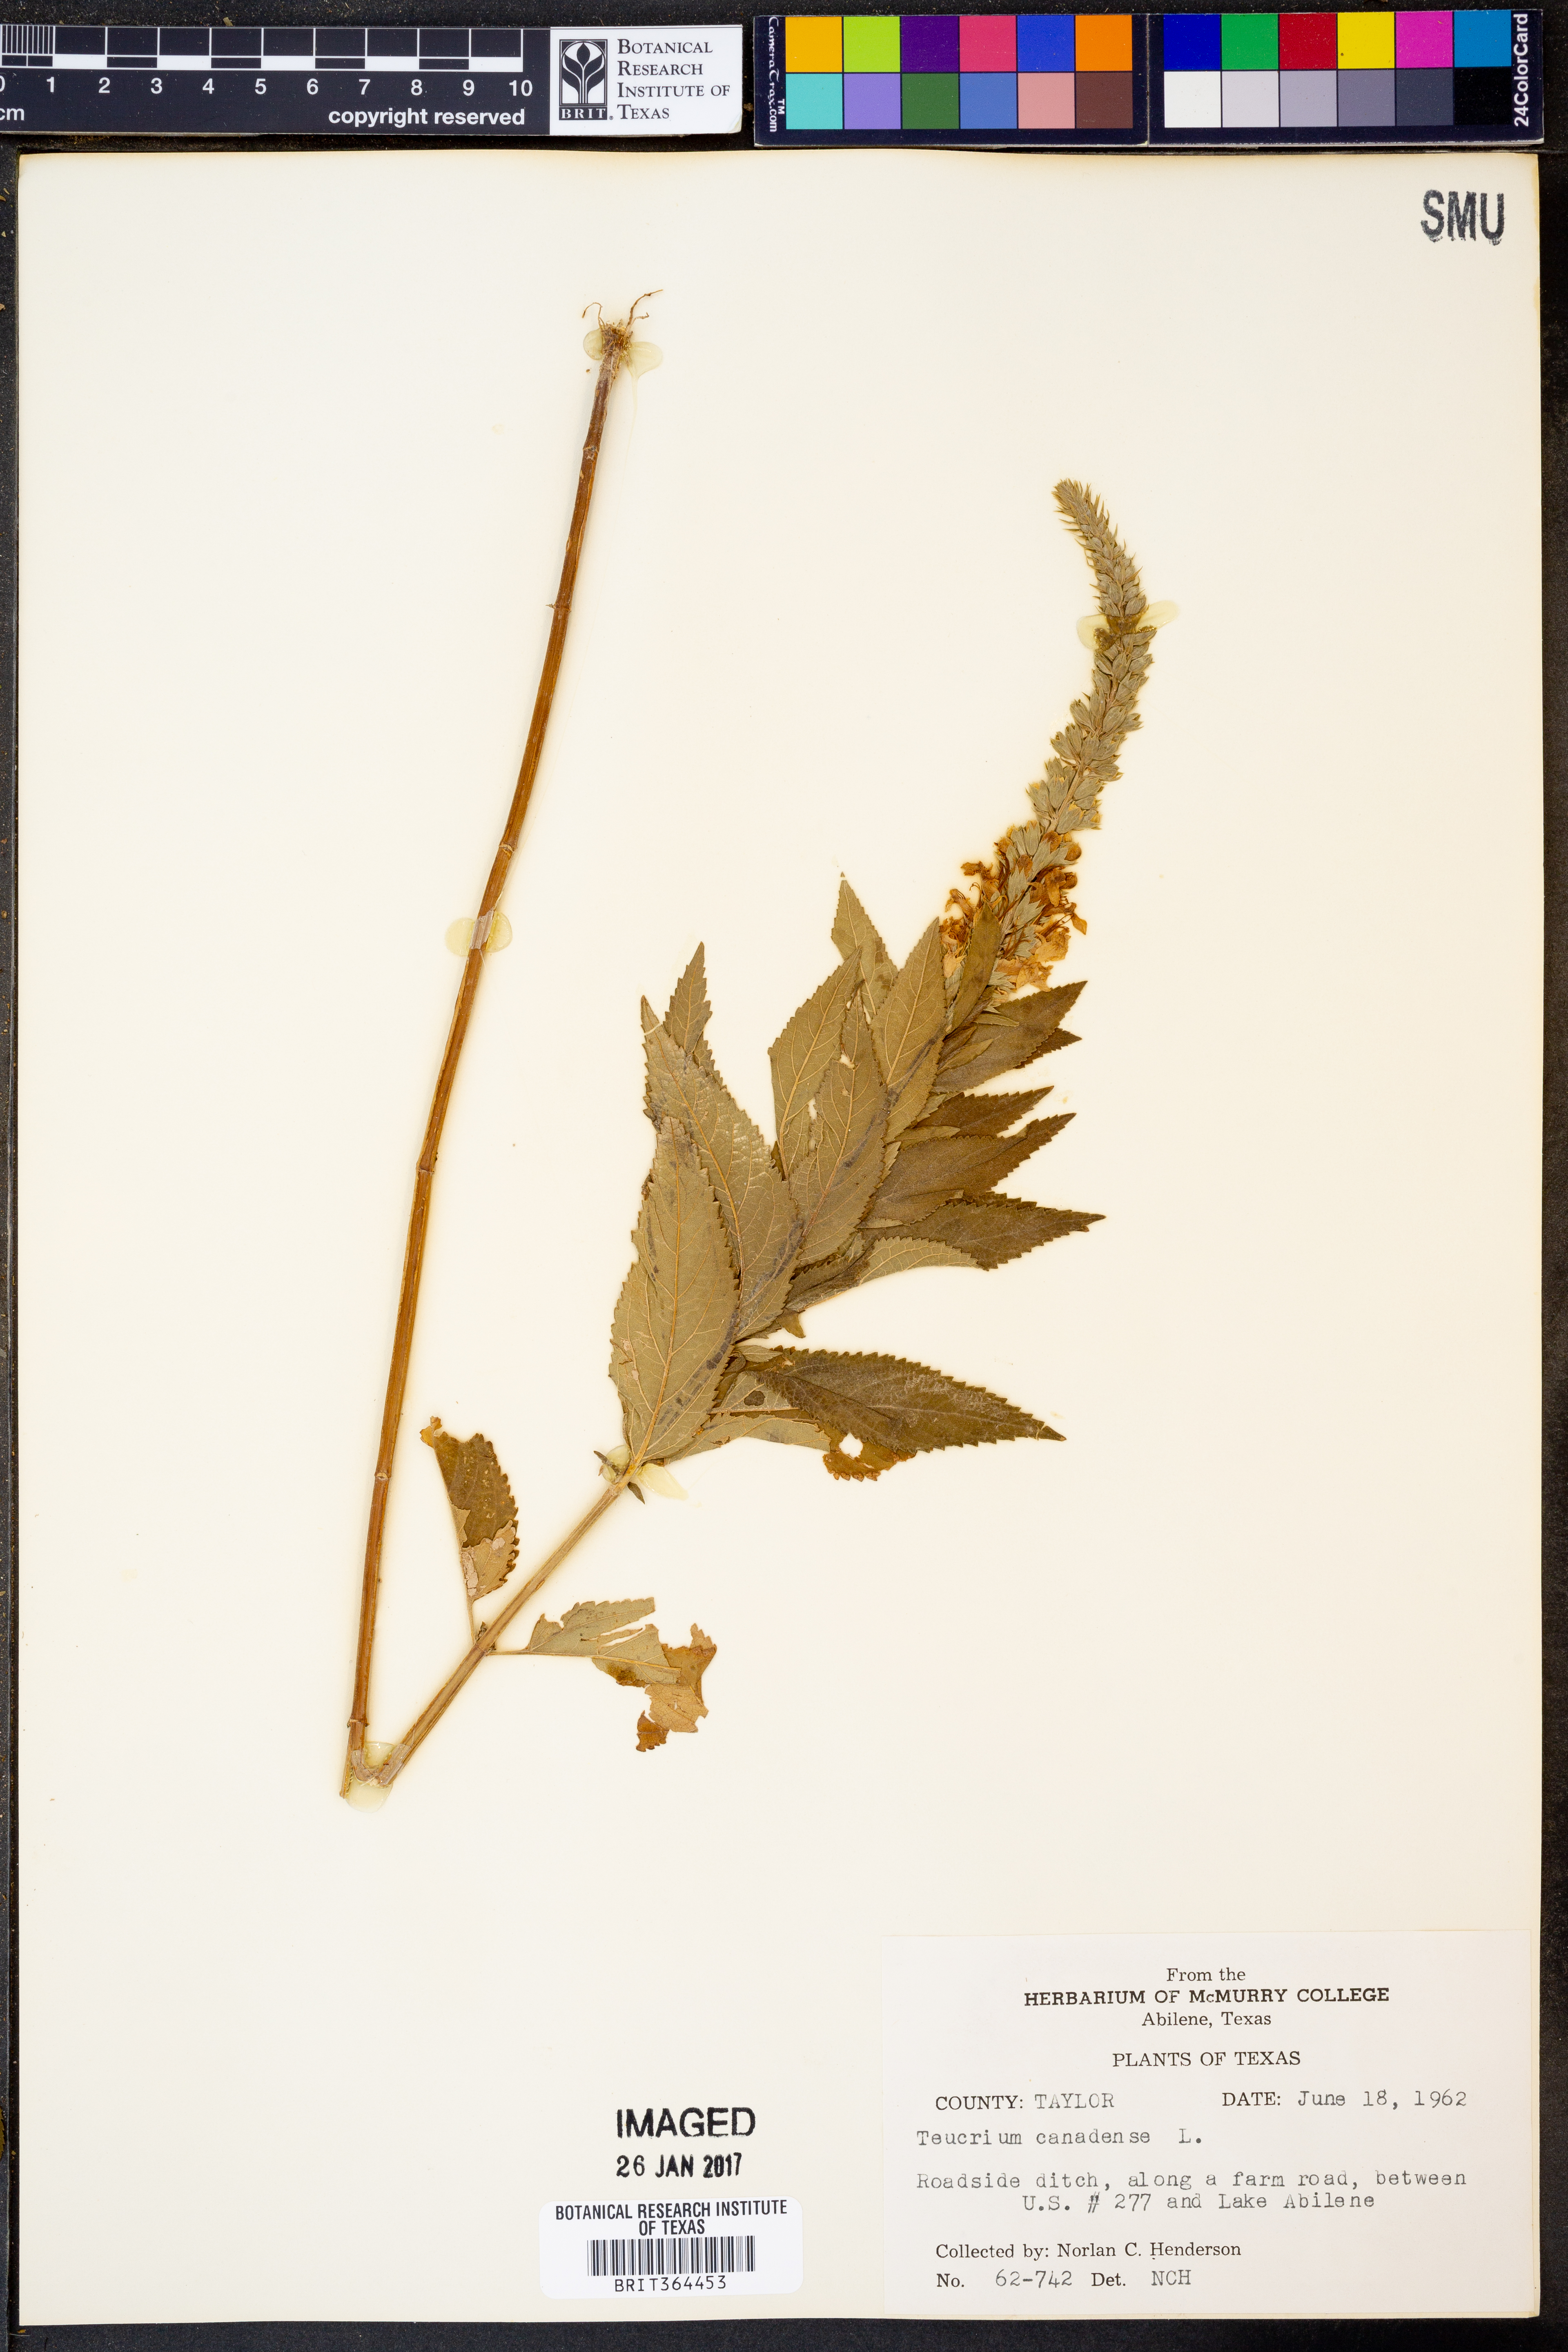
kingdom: Plantae
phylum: Tracheophyta
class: Magnoliopsida
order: Lamiales
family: Lamiaceae
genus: Teucrium
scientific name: Teucrium canadense
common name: American germander
